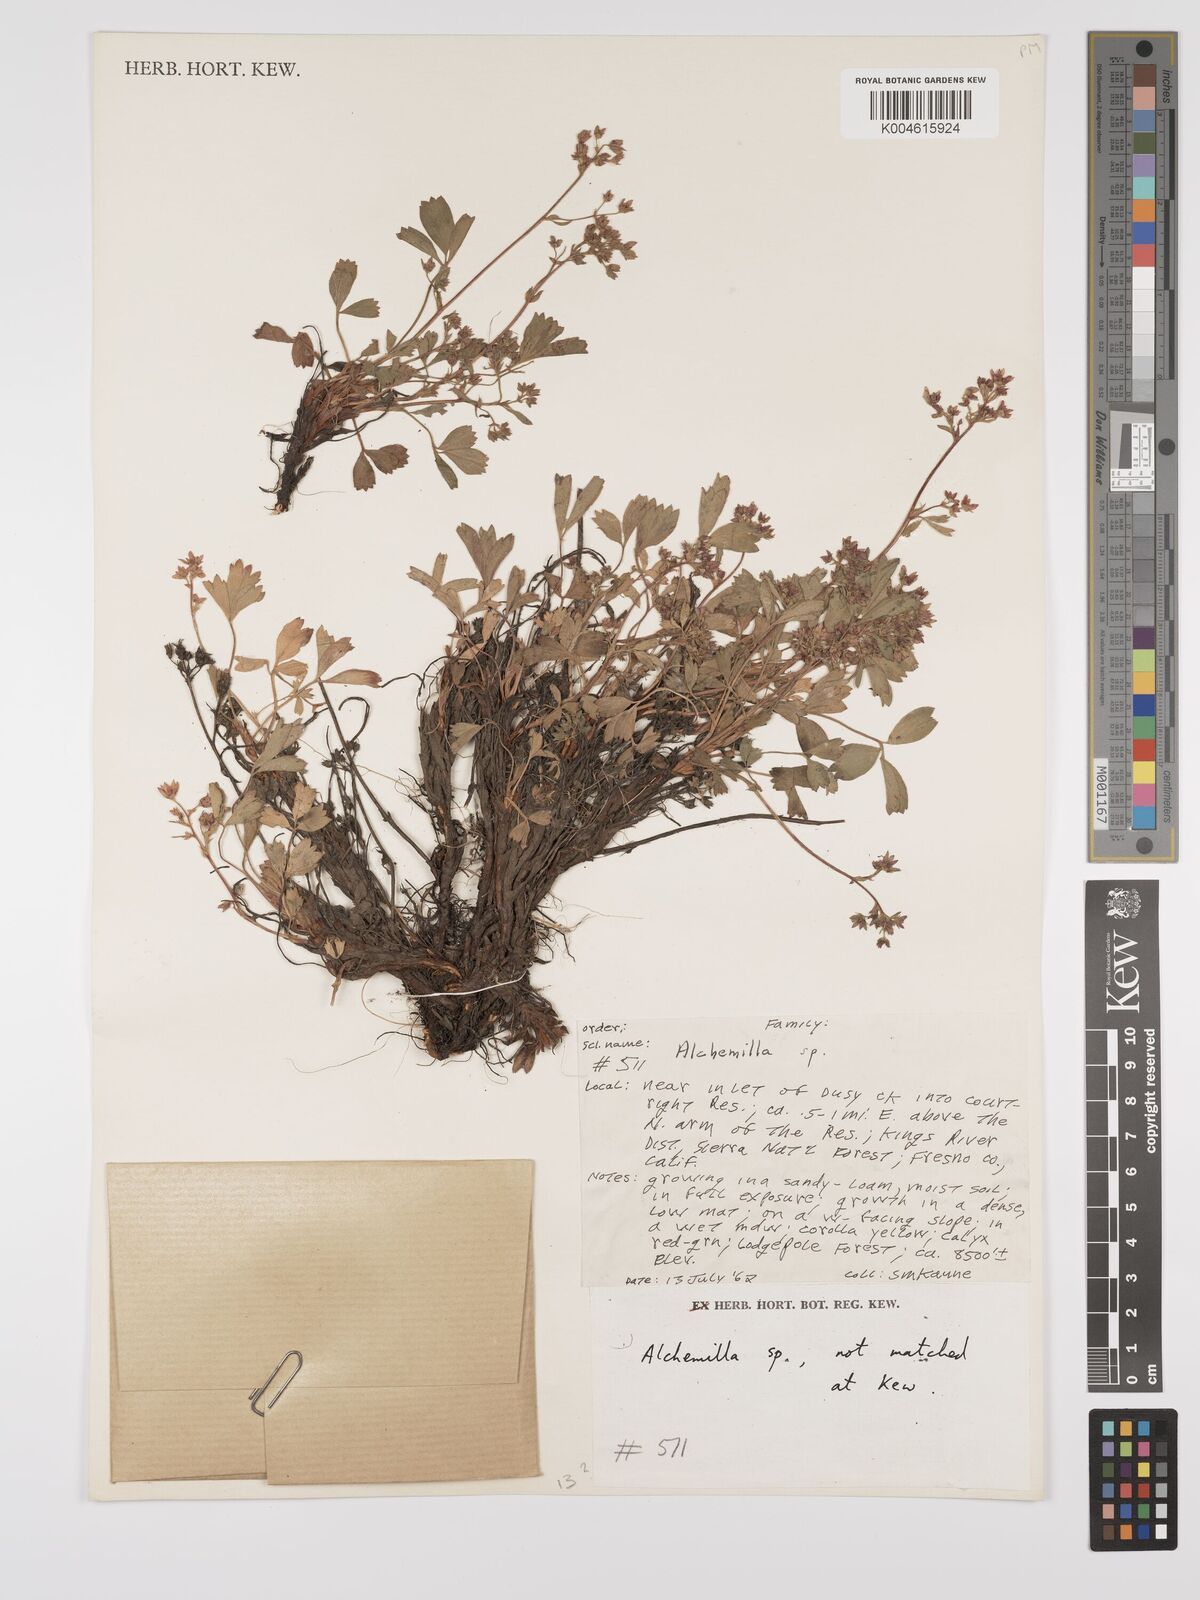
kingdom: Plantae
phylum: Tracheophyta
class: Magnoliopsida
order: Rosales
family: Rosaceae
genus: Alchemilla
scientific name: Alchemilla
